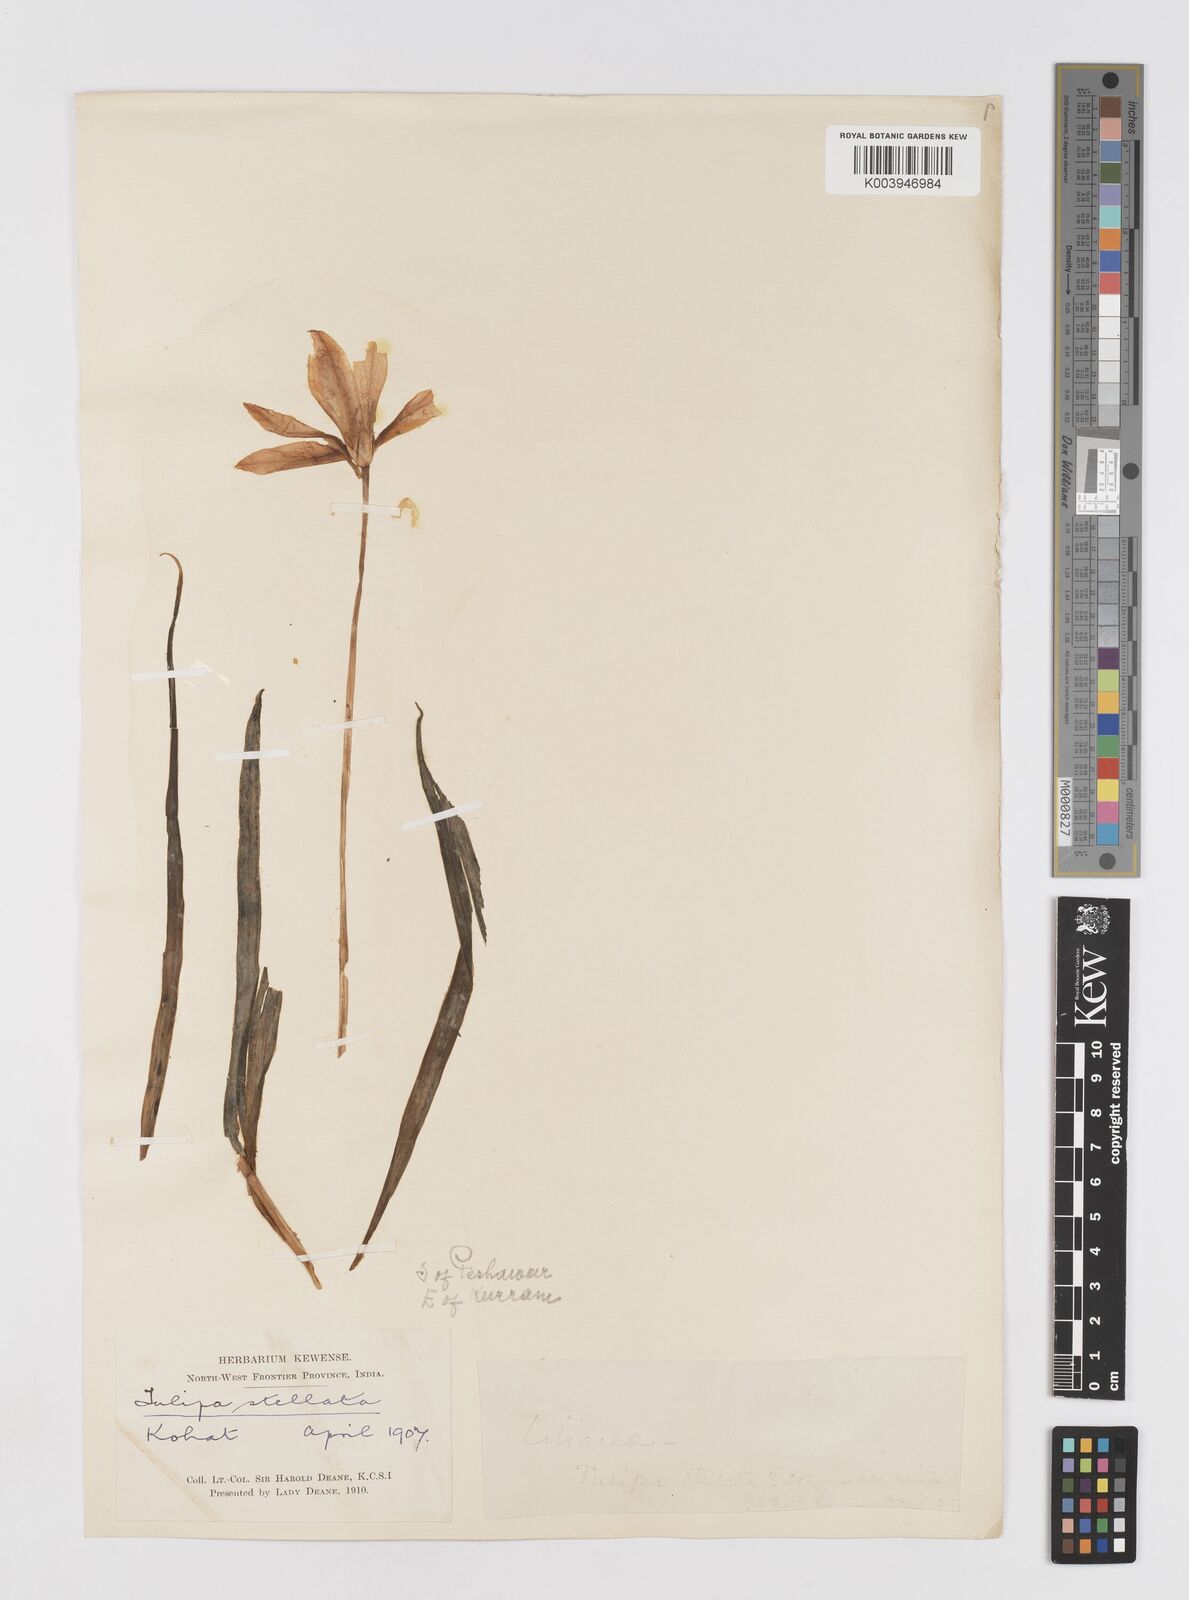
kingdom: Plantae
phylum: Tracheophyta
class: Liliopsida
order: Liliales
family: Liliaceae
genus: Tulipa
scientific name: Tulipa clusiana
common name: Lady tulip
